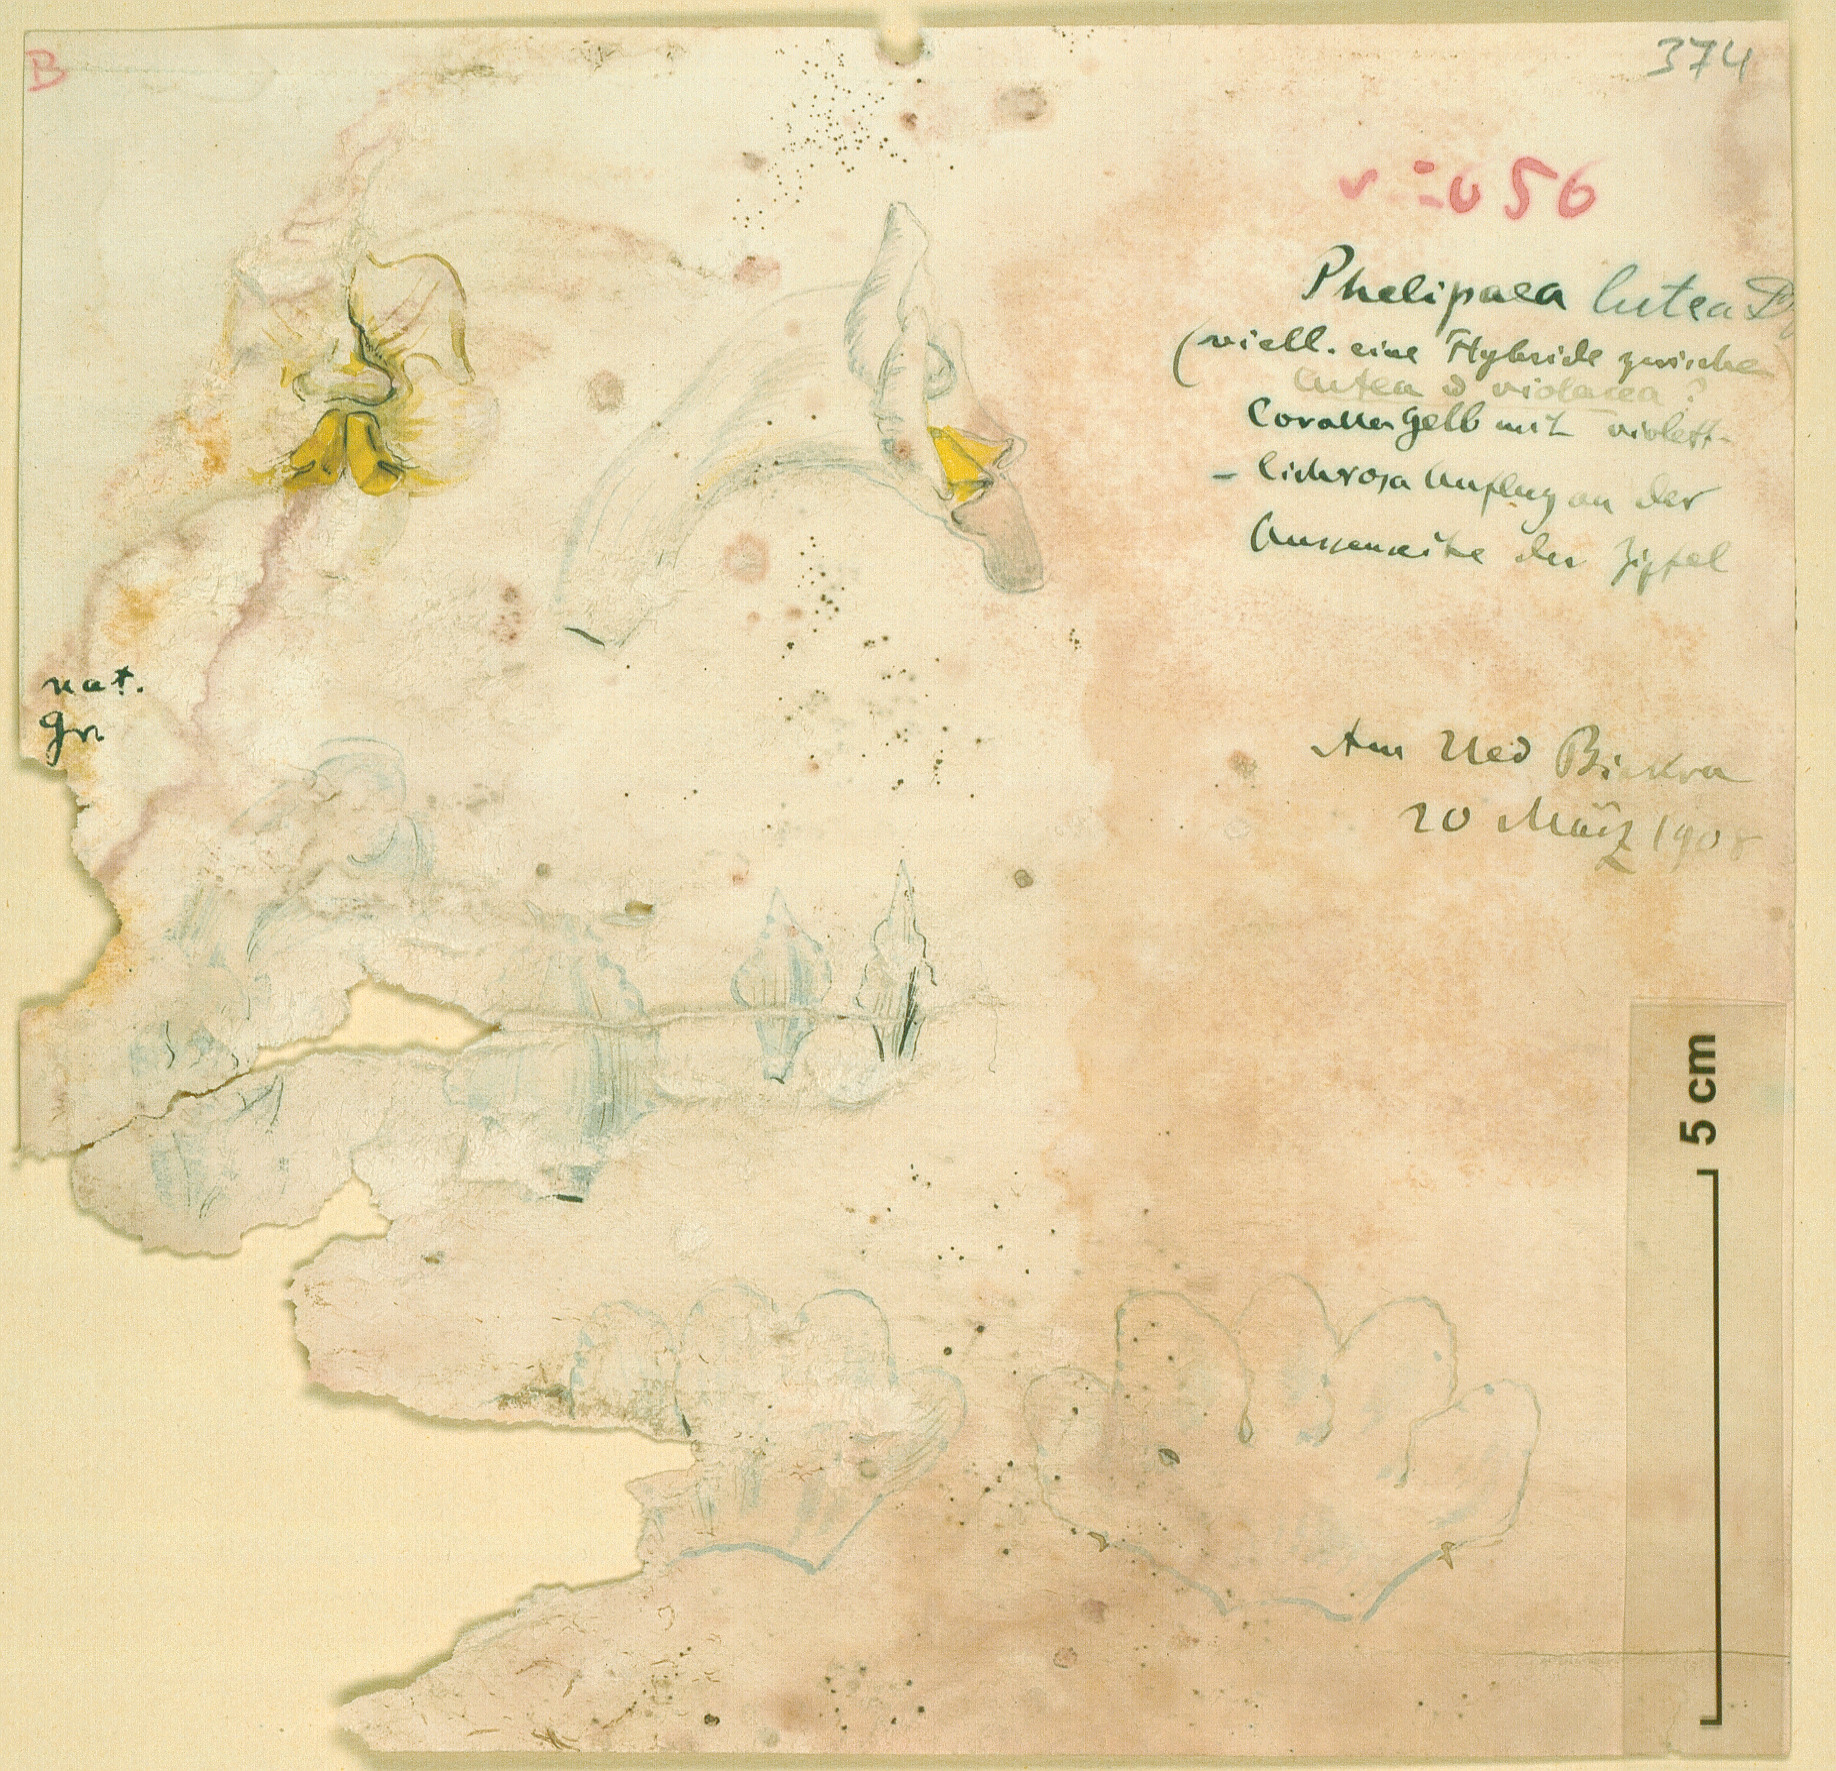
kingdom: Plantae
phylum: Tracheophyta
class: Magnoliopsida
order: Lamiales
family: Orobanchaceae
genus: Cistanche
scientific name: Cistanche phelypaea
